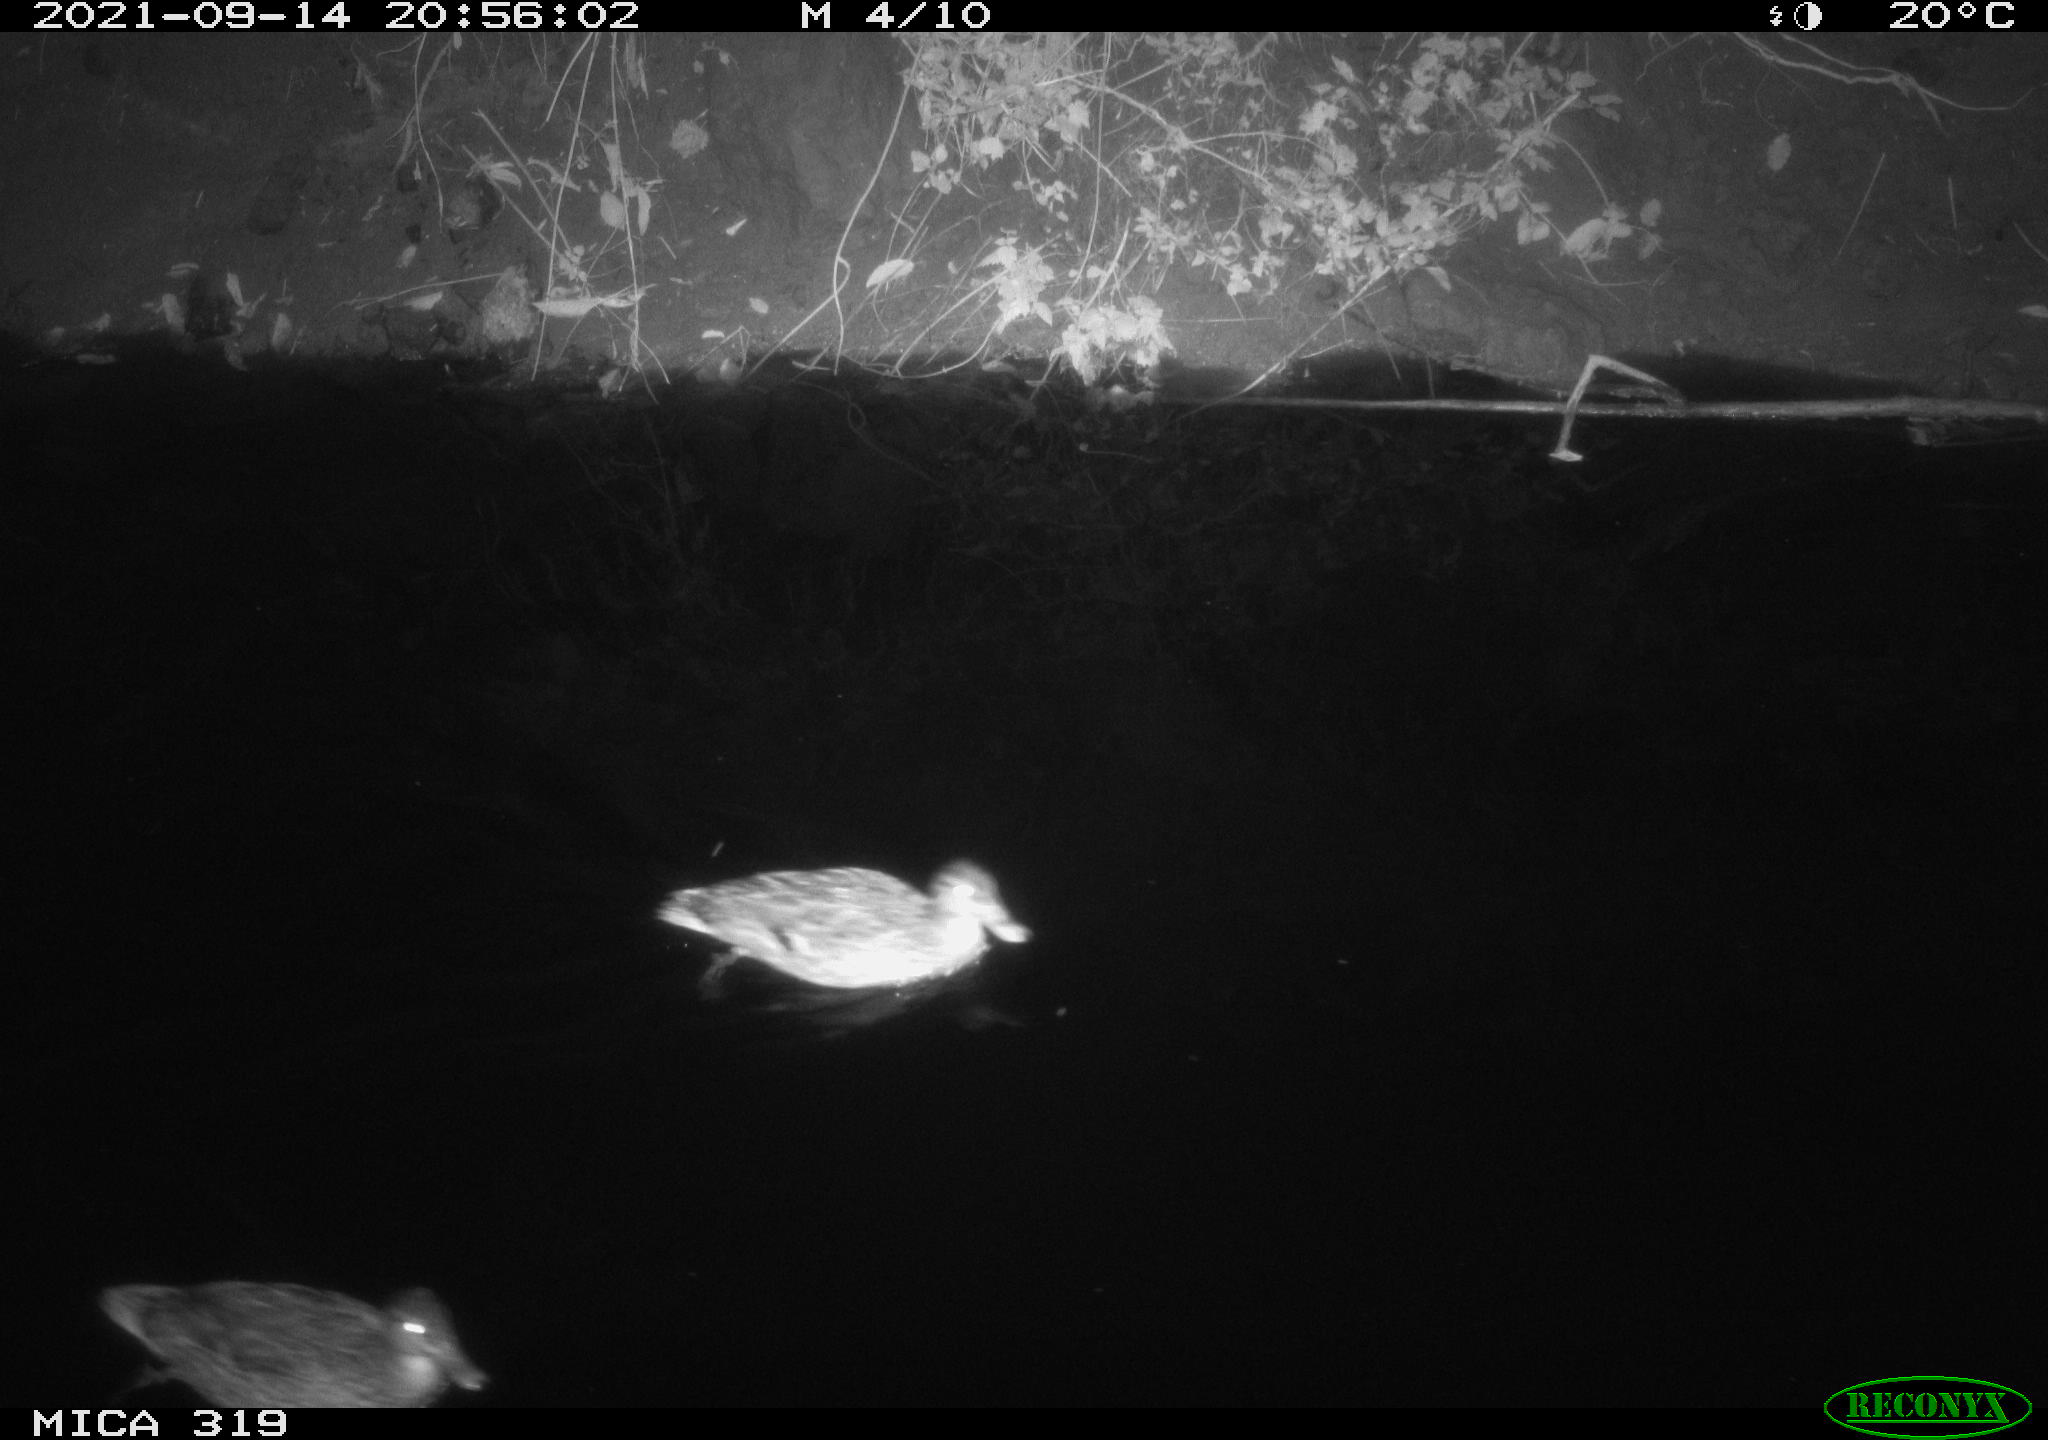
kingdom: Animalia
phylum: Chordata
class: Aves
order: Anseriformes
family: Anatidae
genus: Anas
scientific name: Anas platyrhynchos
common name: Mallard
